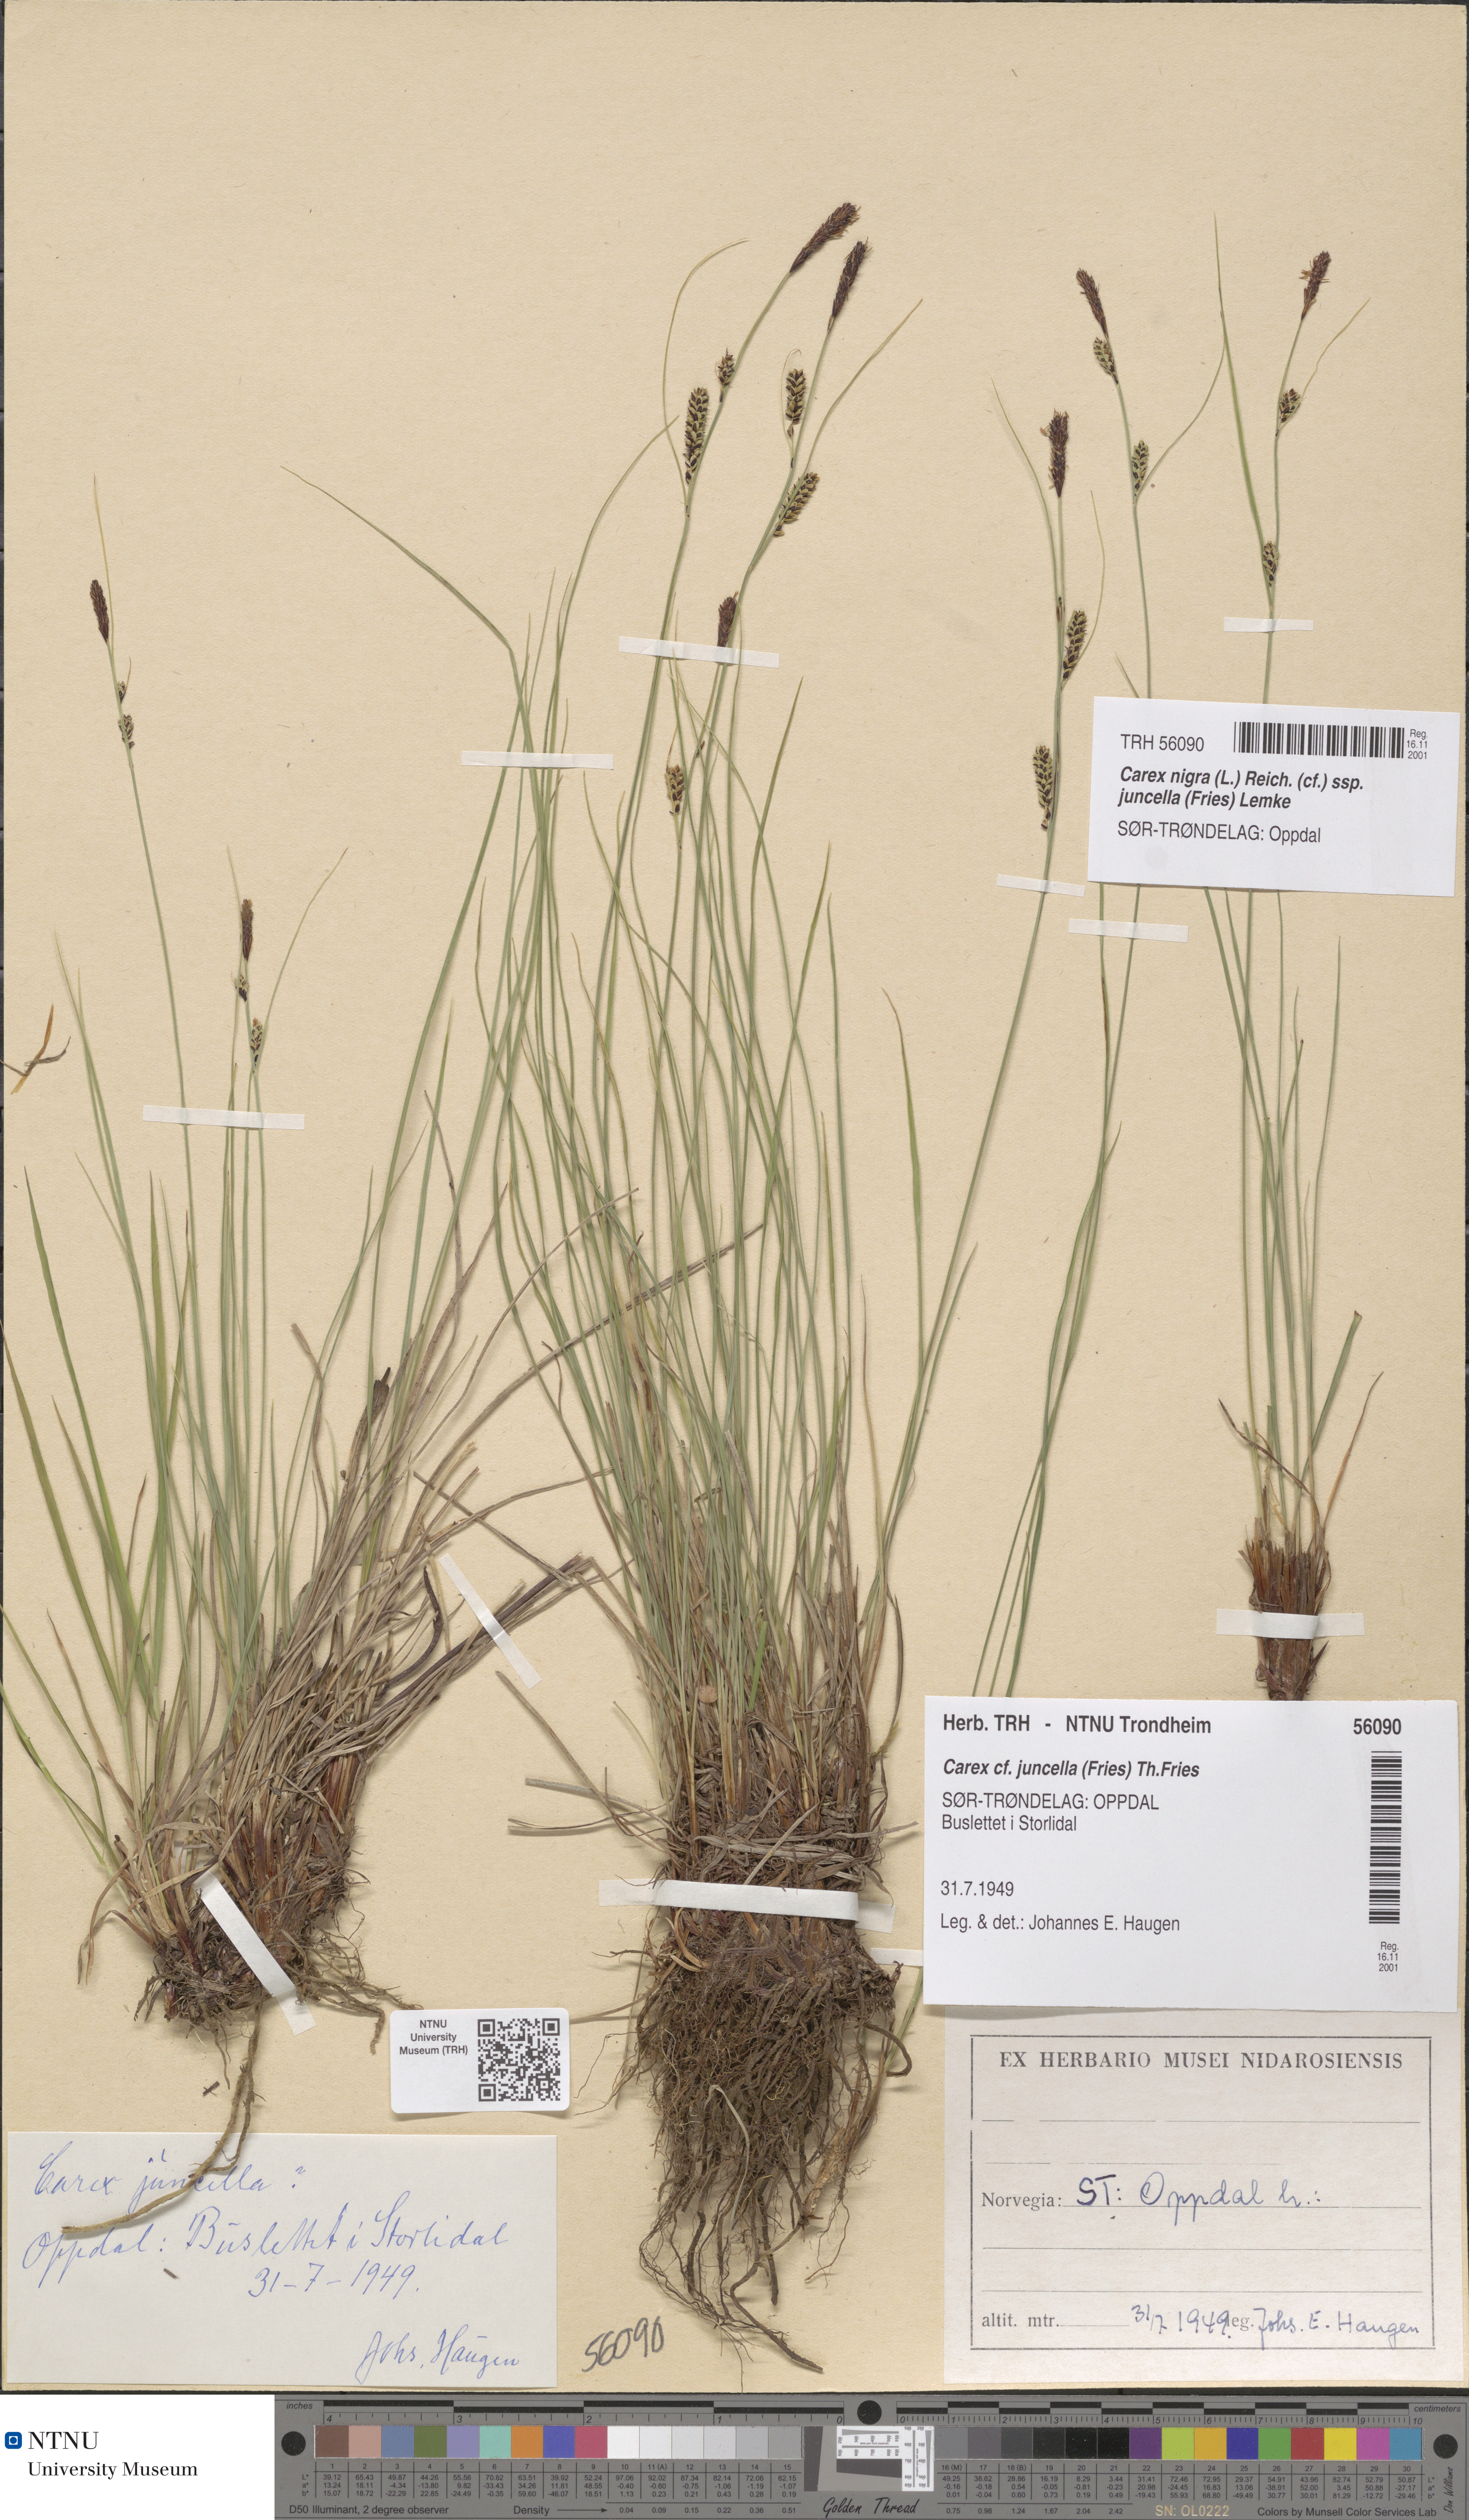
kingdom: Plantae
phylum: Tracheophyta
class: Liliopsida
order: Poales
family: Cyperaceae
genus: Carex
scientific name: Carex nigra
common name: Common sedge
